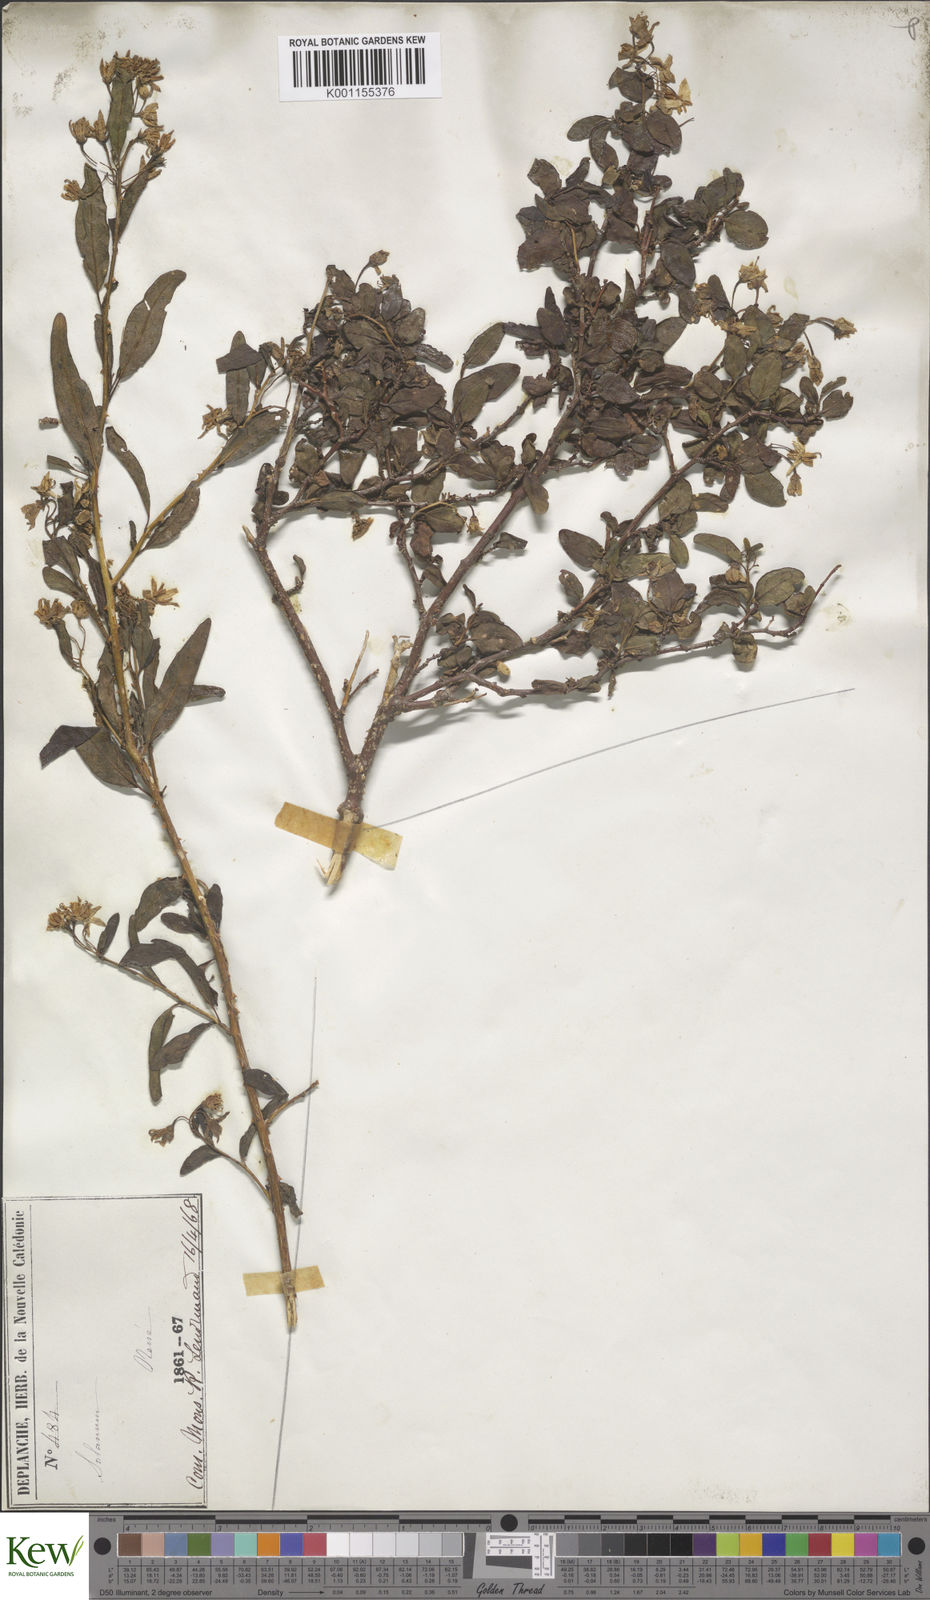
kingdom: Plantae
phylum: Tracheophyta
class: Magnoliopsida
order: Solanales
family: Solanaceae
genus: Solanum
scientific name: Solanum leratii
